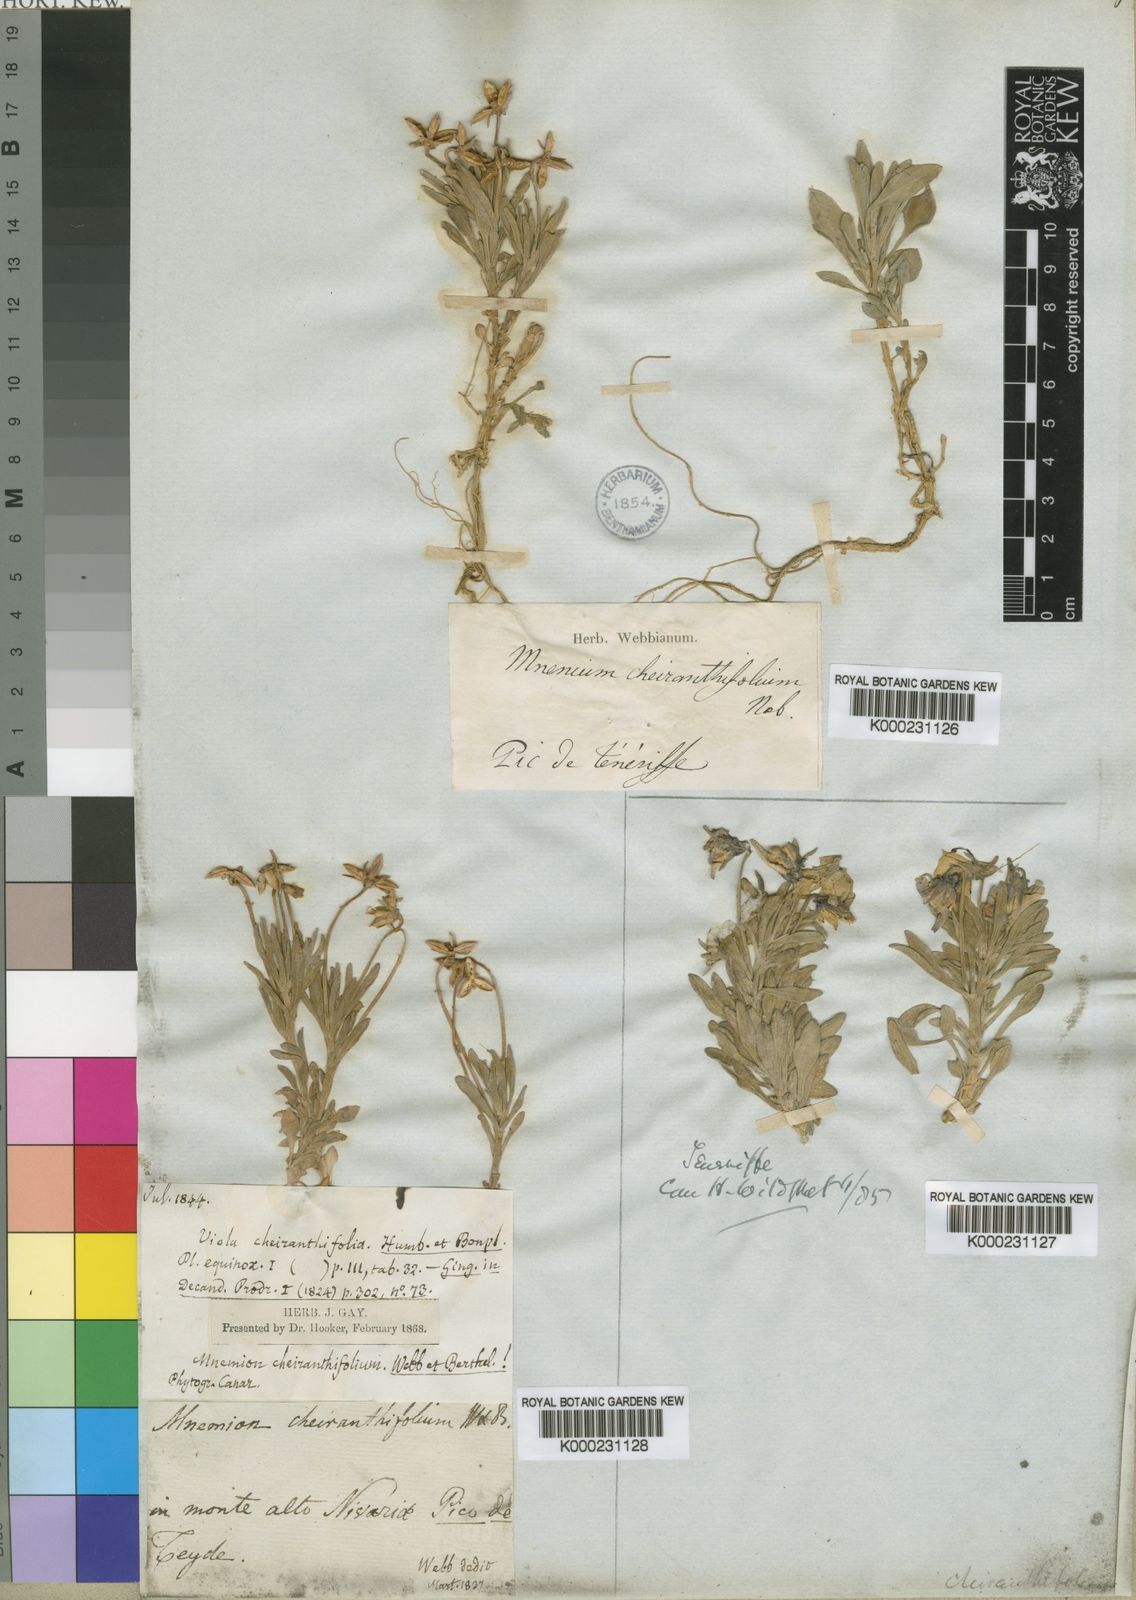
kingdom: Plantae
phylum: Tracheophyta
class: Magnoliopsida
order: Malpighiales
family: Violaceae
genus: Viola
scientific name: Viola cheiranthifolia
